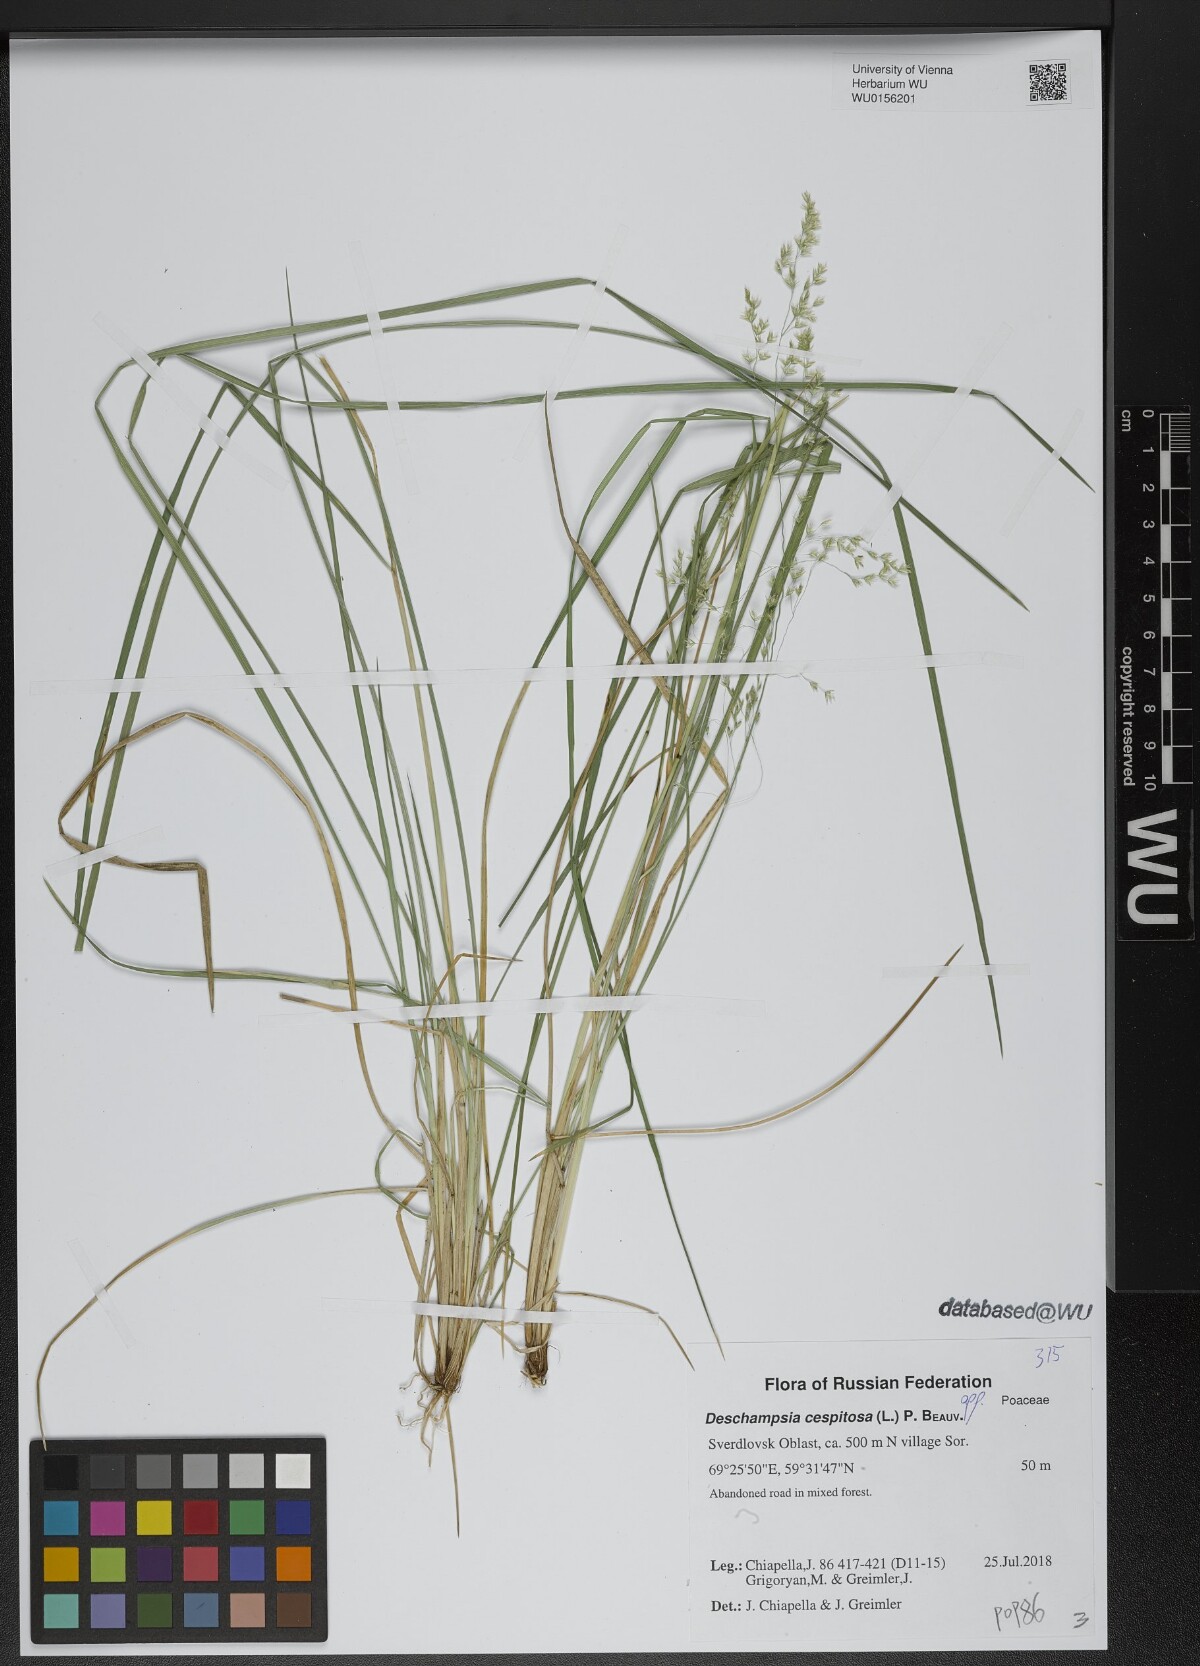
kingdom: Plantae
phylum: Tracheophyta
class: Liliopsida
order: Poales
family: Poaceae
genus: Deschampsia
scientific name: Deschampsia cespitosa
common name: Tufted hair-grass
